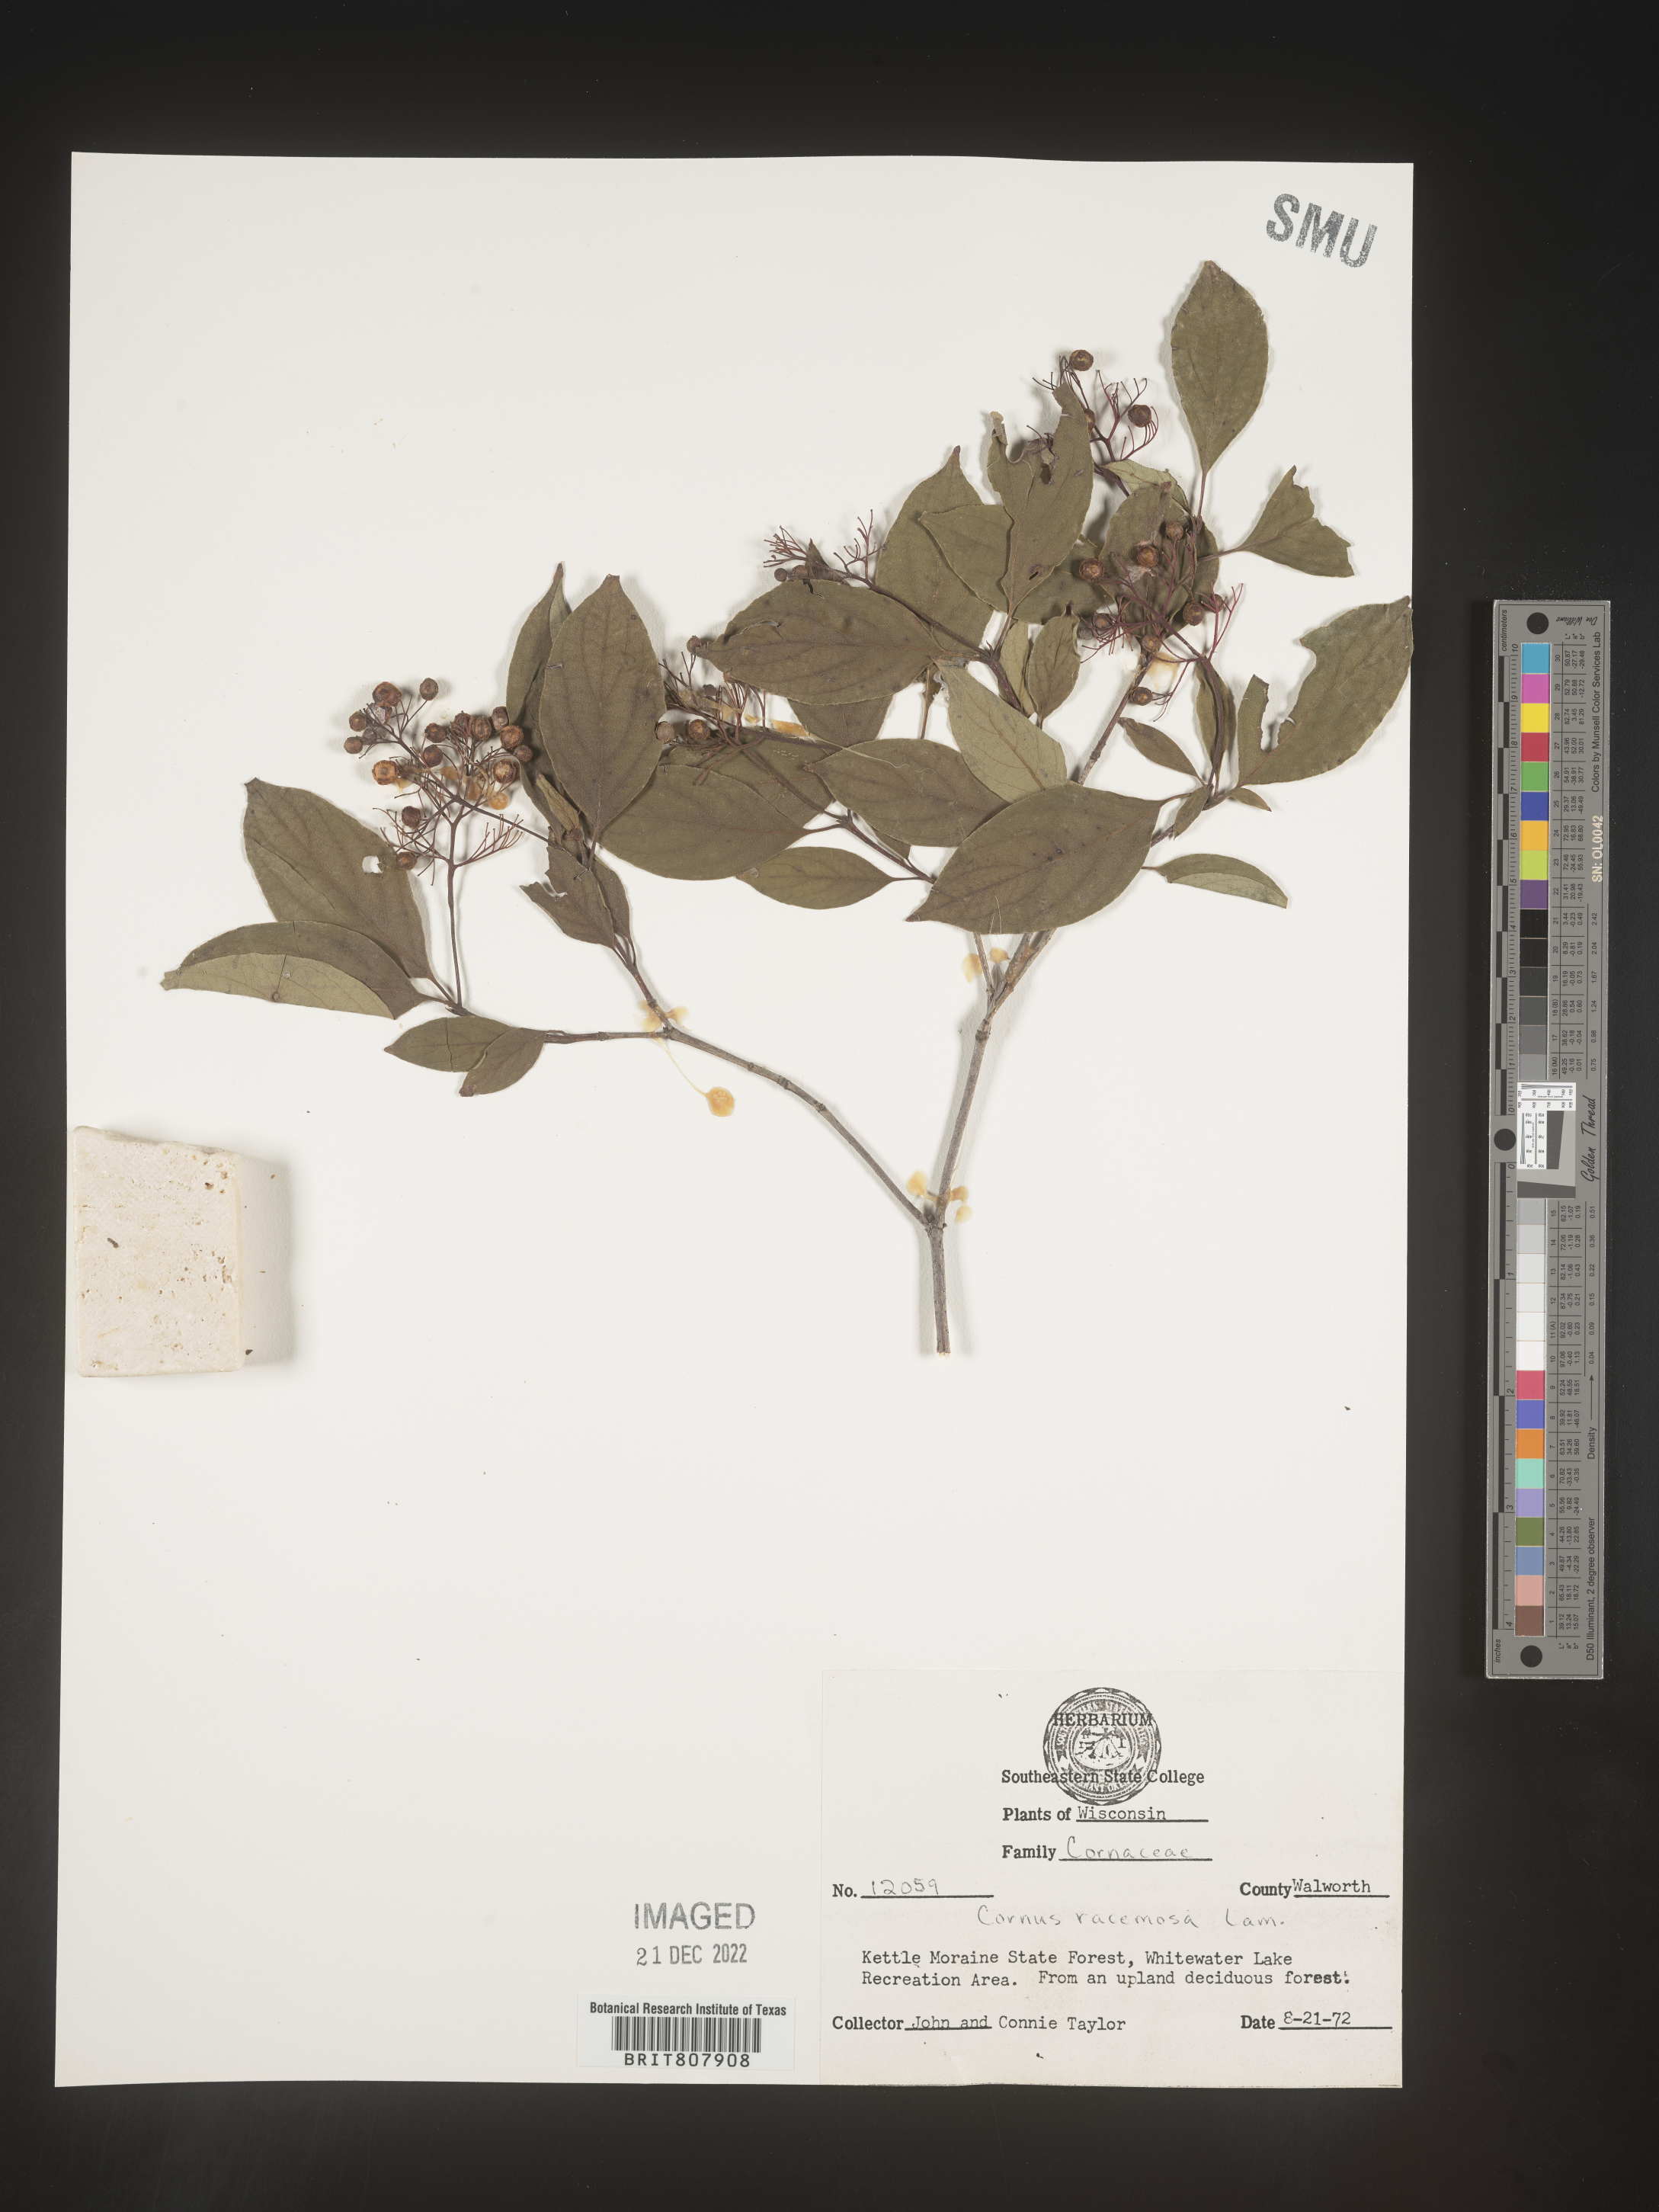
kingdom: Plantae
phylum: Tracheophyta
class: Magnoliopsida
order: Cornales
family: Cornaceae
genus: Cornus
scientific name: Cornus racemosa
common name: Panicled dogwood
